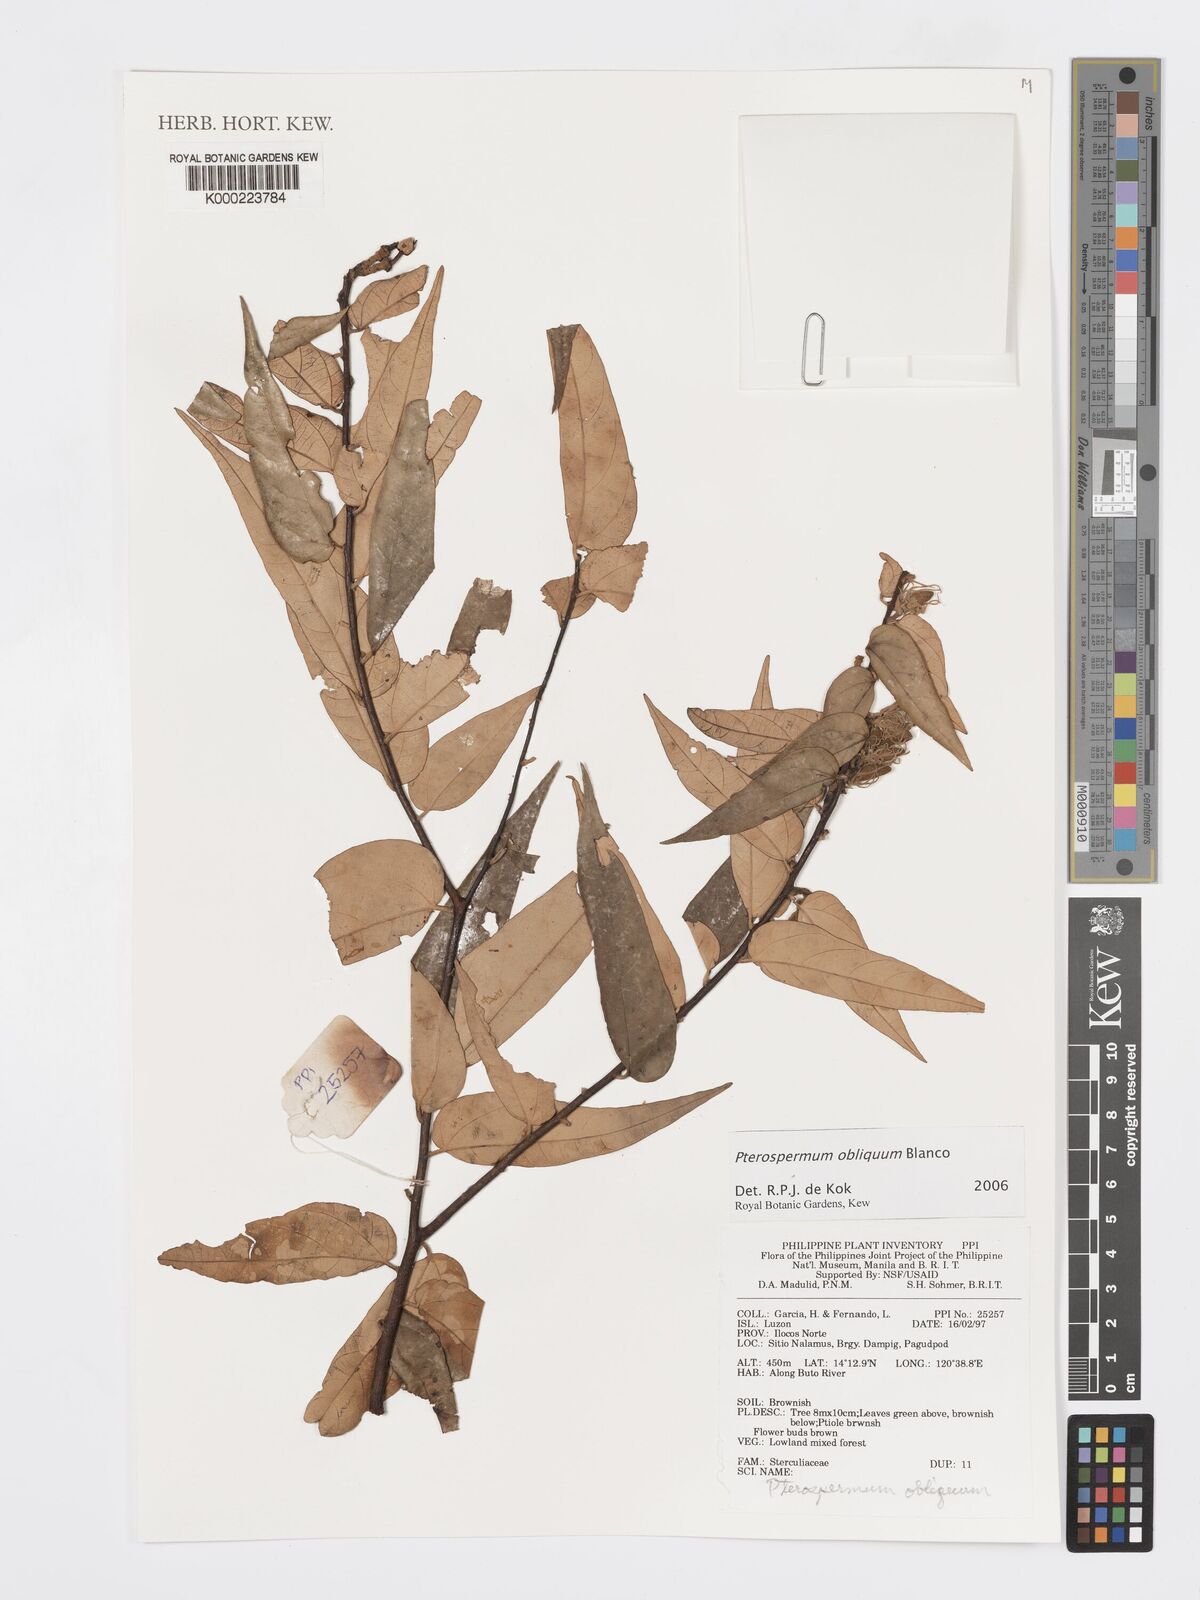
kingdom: Plantae
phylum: Tracheophyta
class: Magnoliopsida
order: Malvales
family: Malvaceae
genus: Pterospermum
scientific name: Pterospermum obliquum
